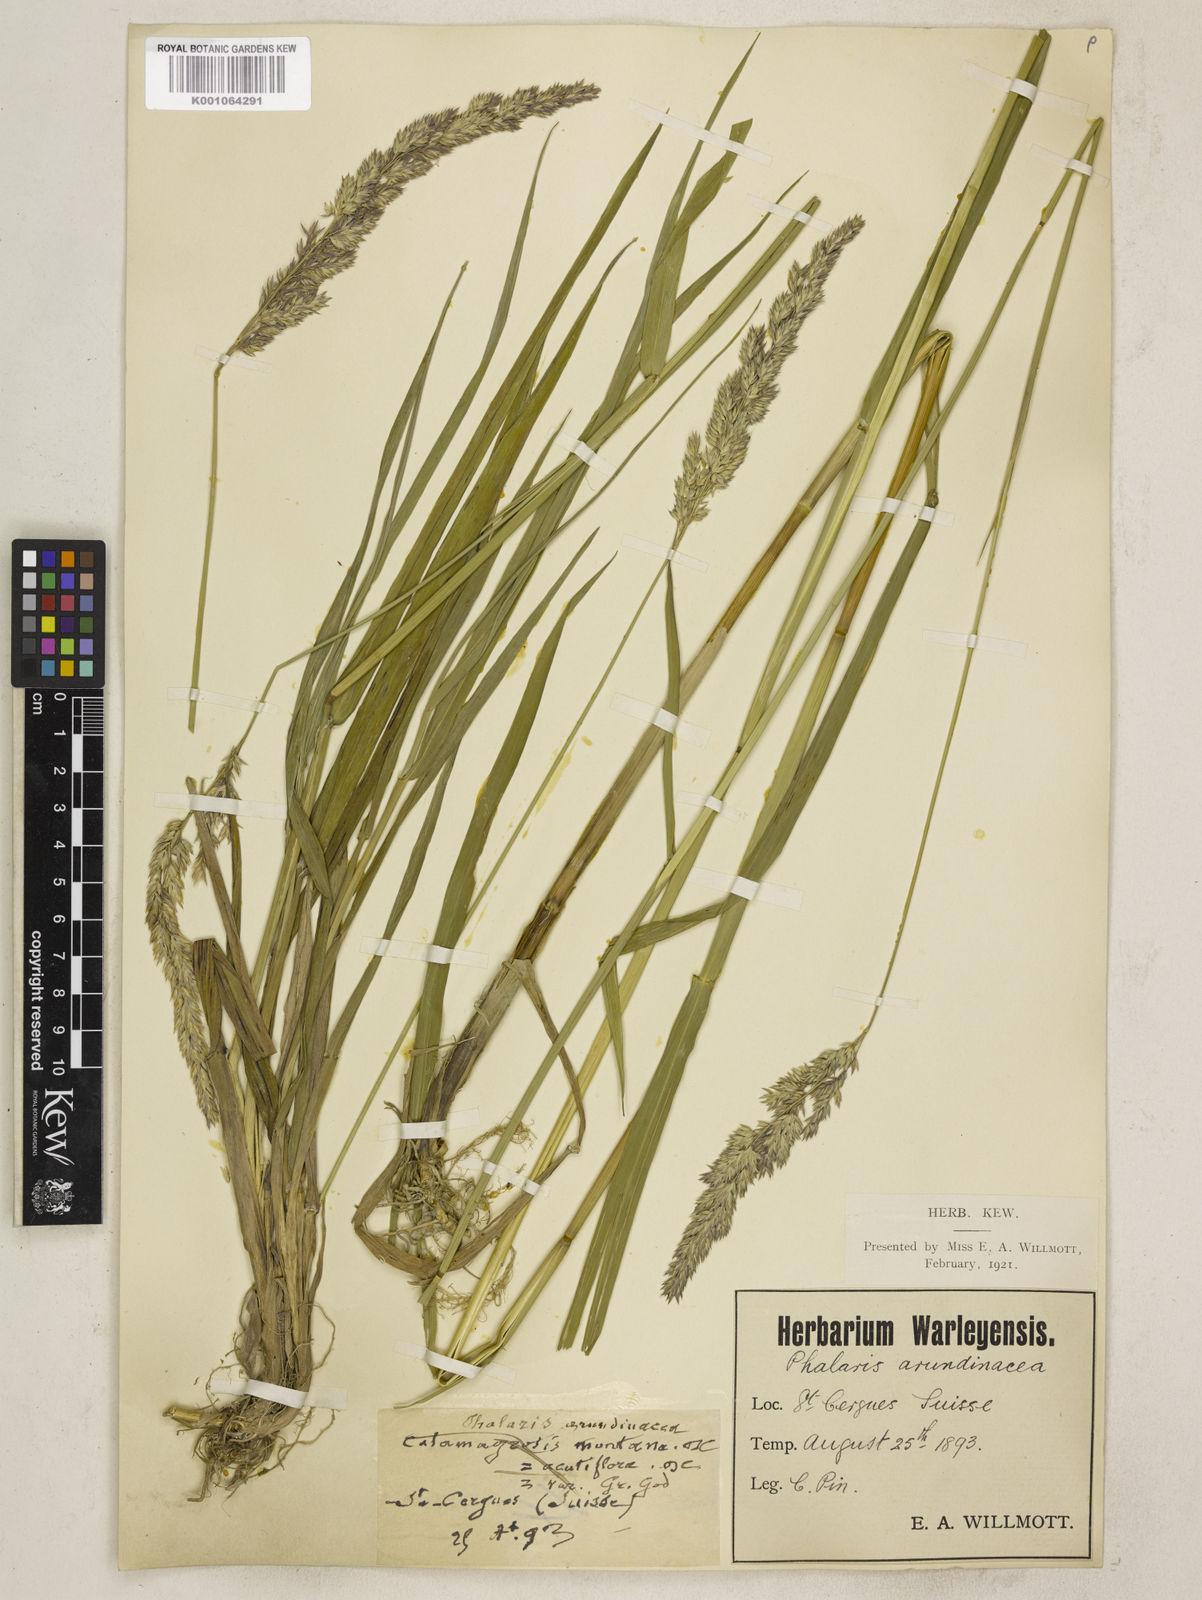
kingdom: Plantae
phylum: Tracheophyta
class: Liliopsida
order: Poales
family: Poaceae
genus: Phalaris
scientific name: Phalaris arundinacea
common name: Reed canary-grass
